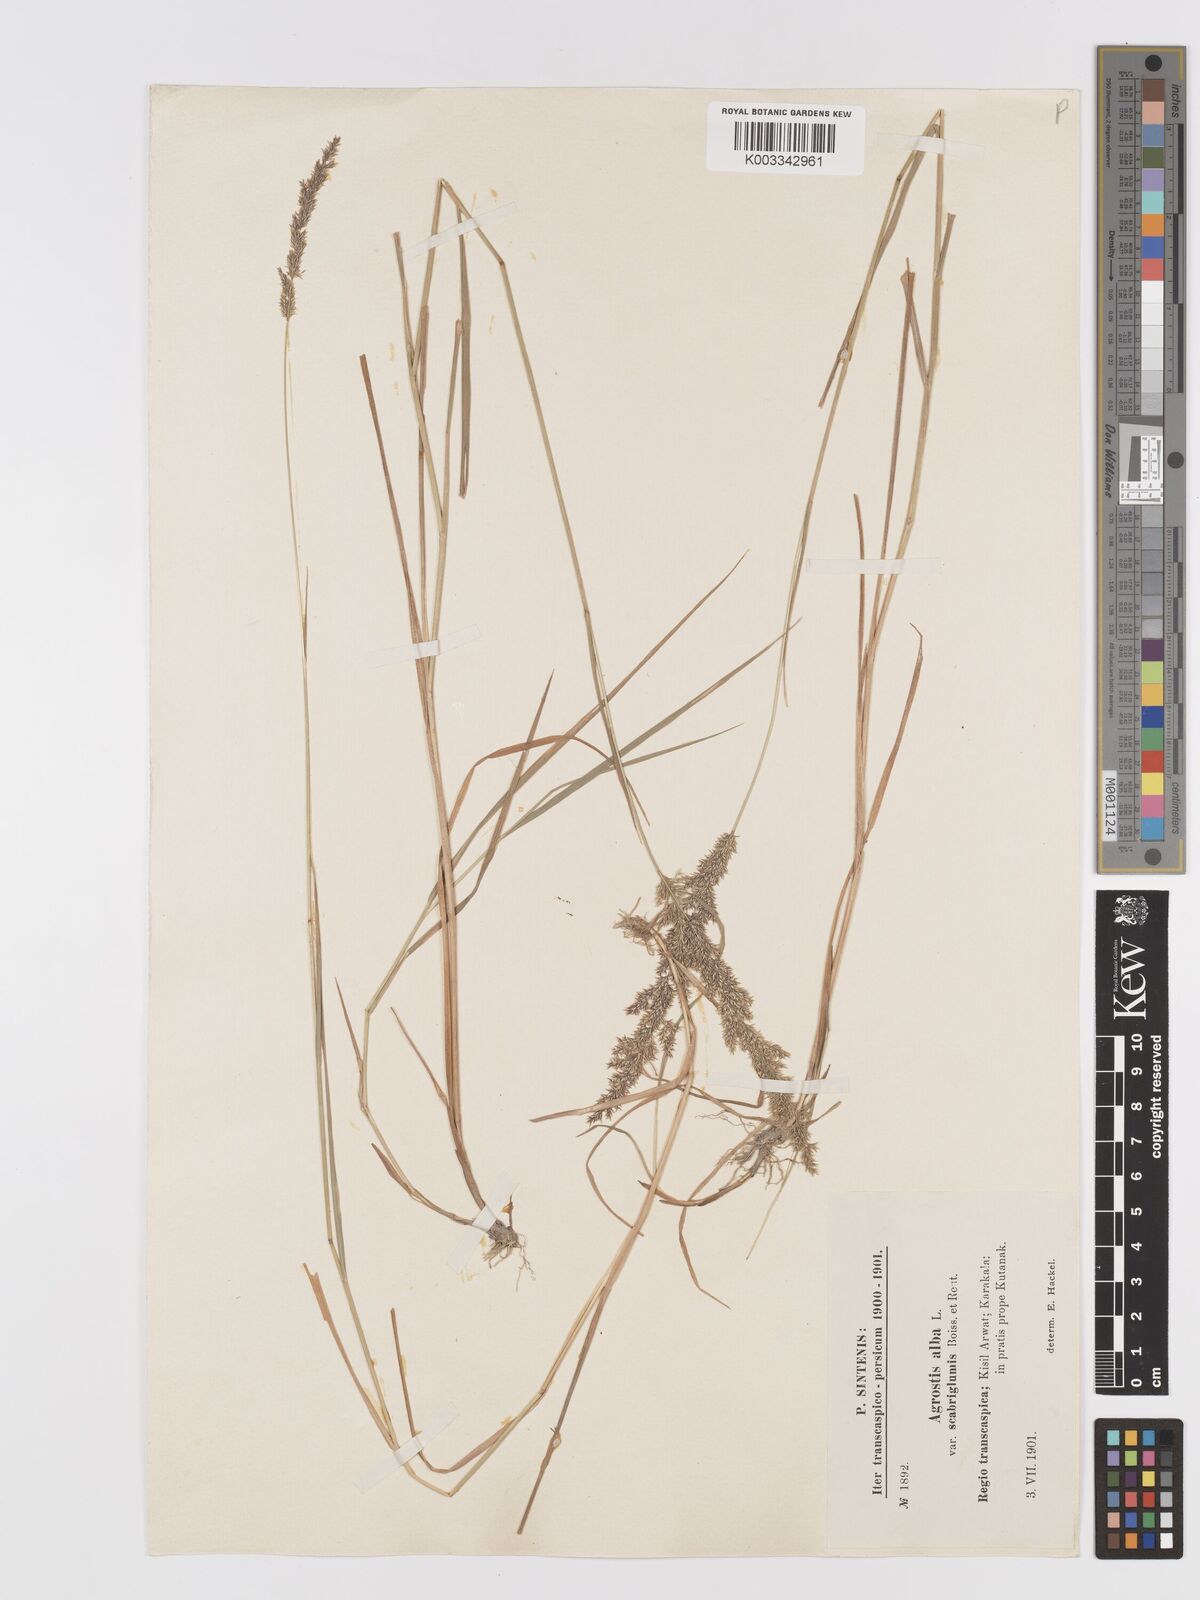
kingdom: Plantae
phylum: Tracheophyta
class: Liliopsida
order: Poales
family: Poaceae
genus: Agrostis
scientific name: Agrostis stolonifera
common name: Creeping bentgrass
